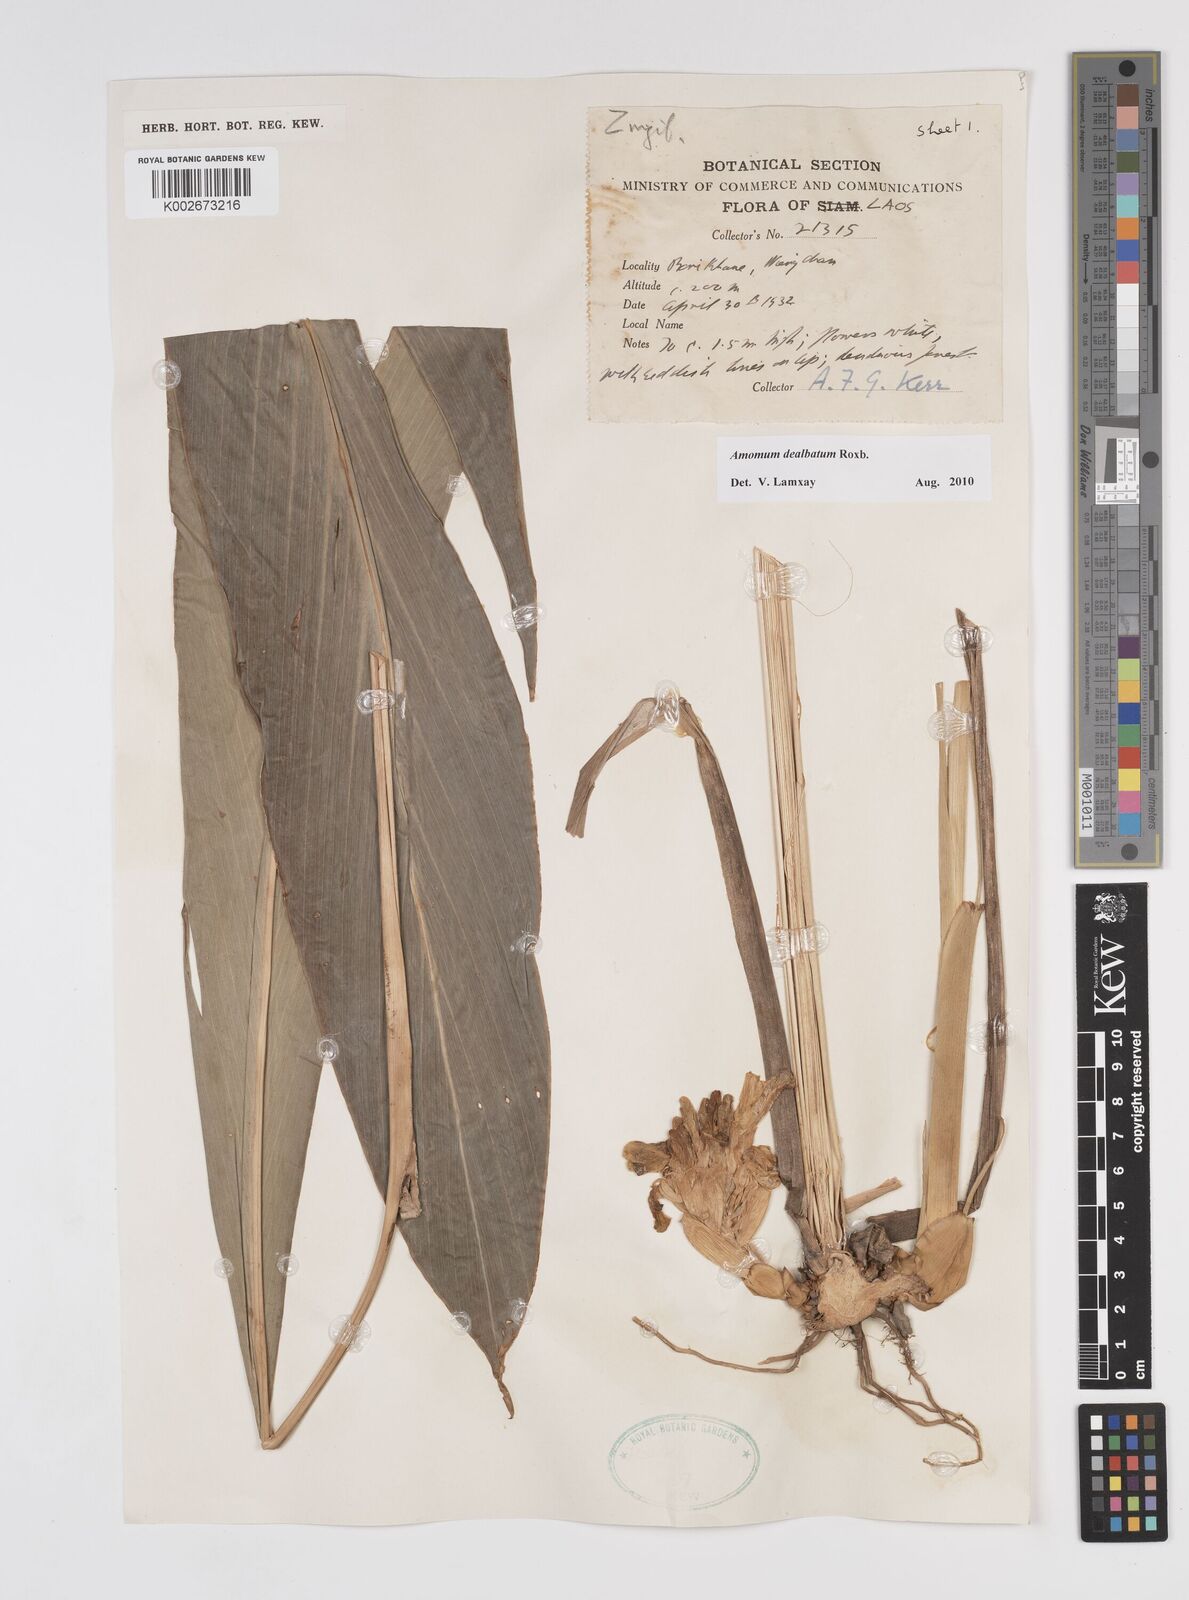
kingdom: Plantae
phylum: Tracheophyta
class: Liliopsida
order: Zingiberales
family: Zingiberaceae
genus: Amomum
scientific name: Amomum dealbatum
